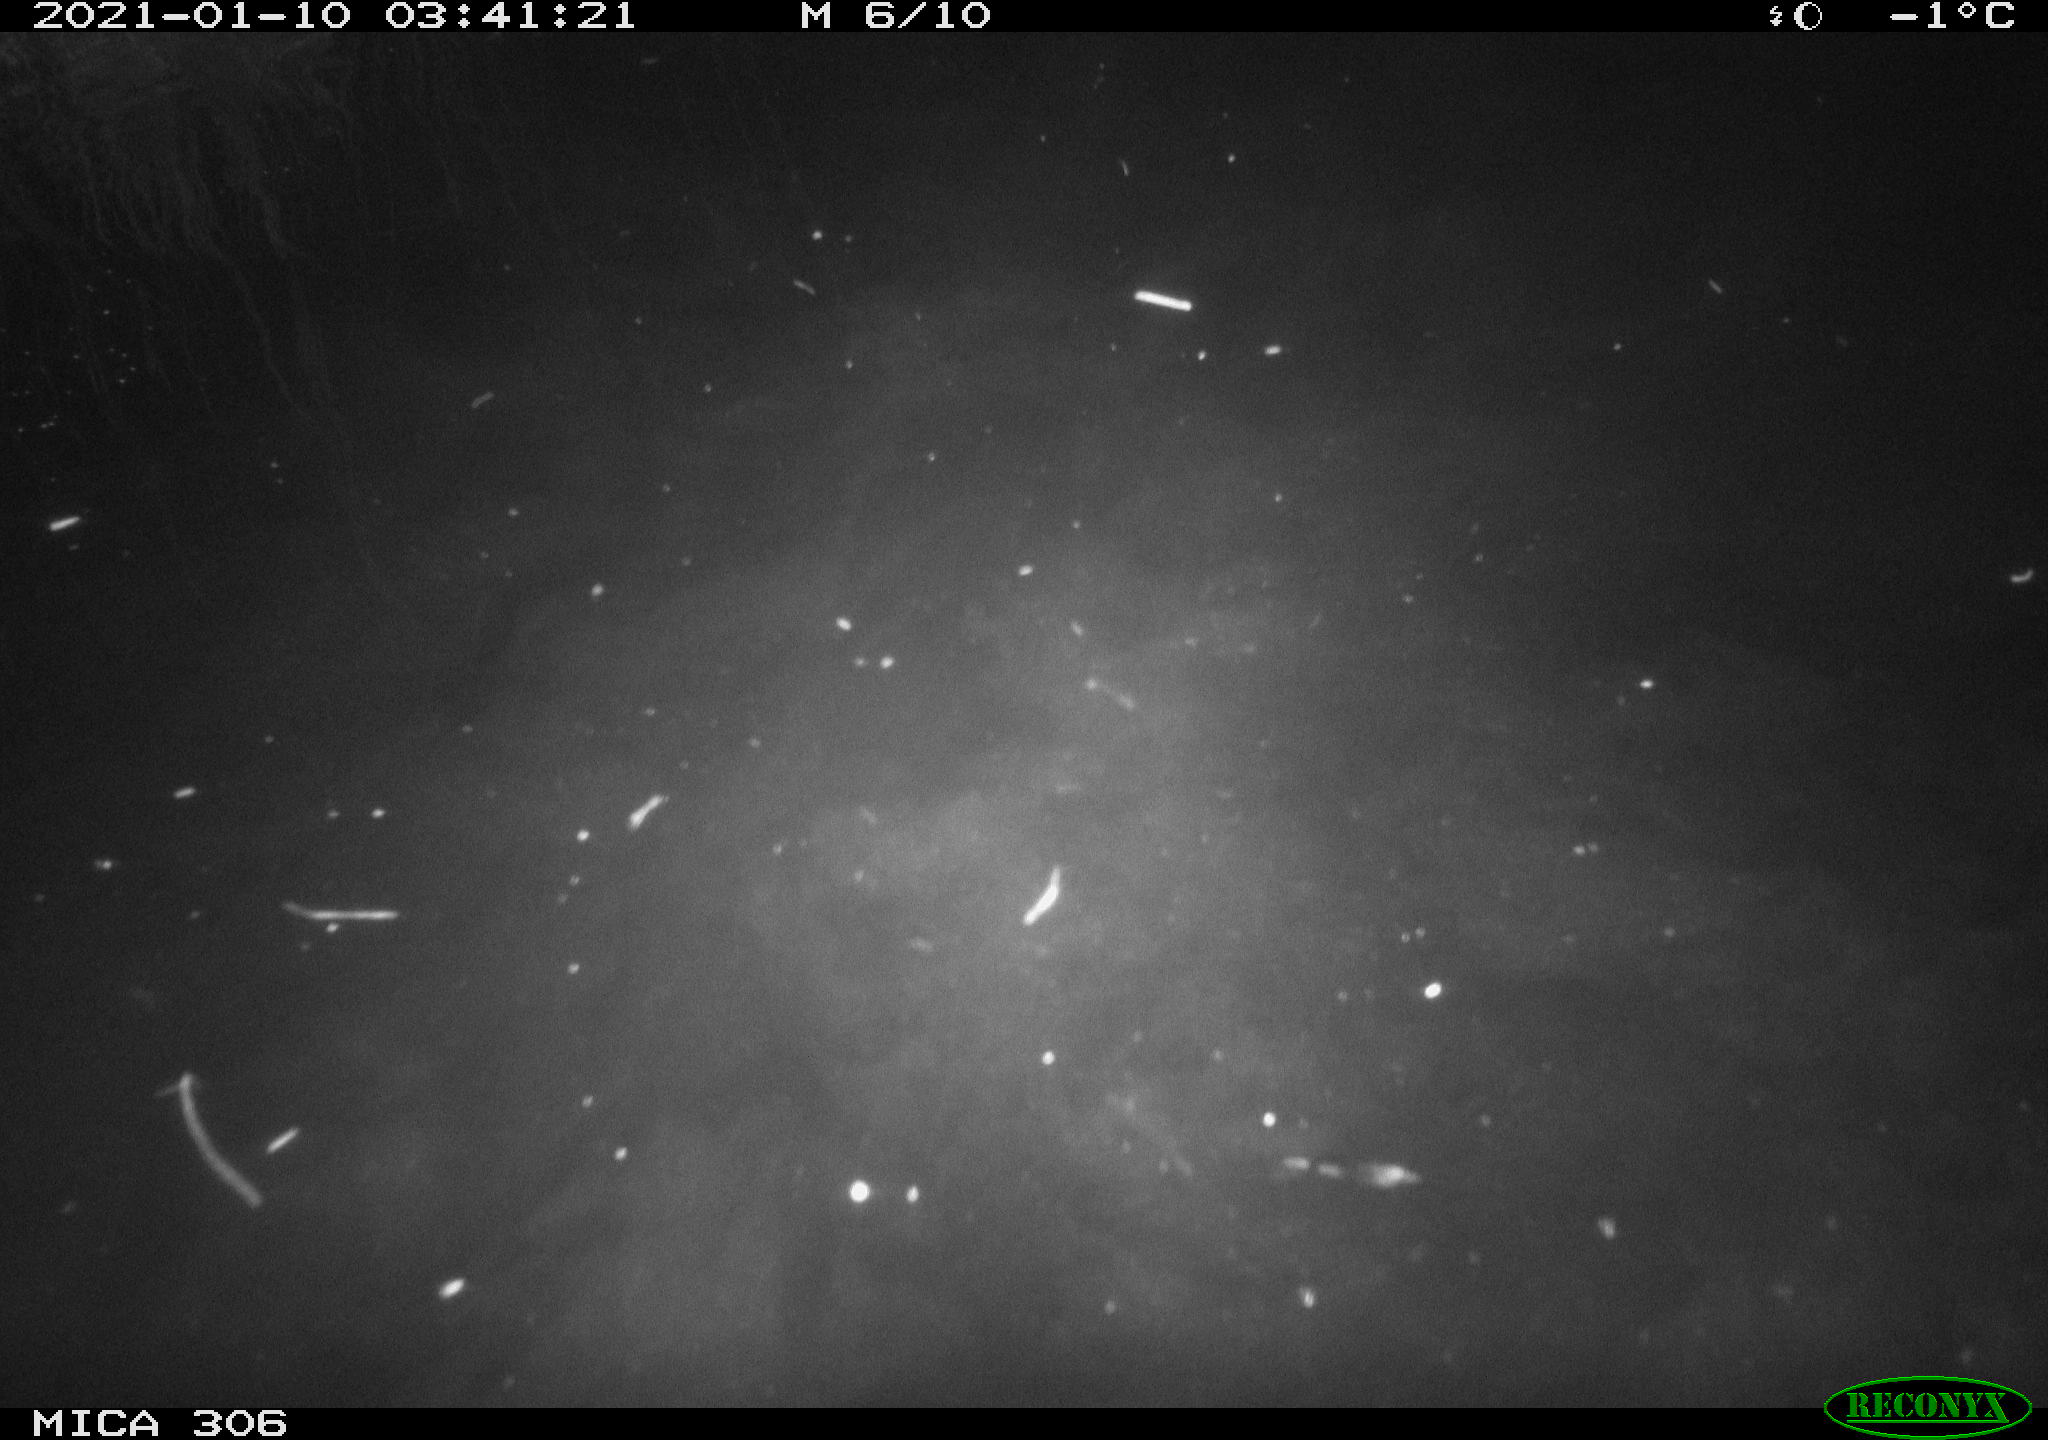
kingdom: Animalia
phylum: Chordata
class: Aves
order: Anseriformes
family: Anatidae
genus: Anas
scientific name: Anas platyrhynchos
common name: Mallard
